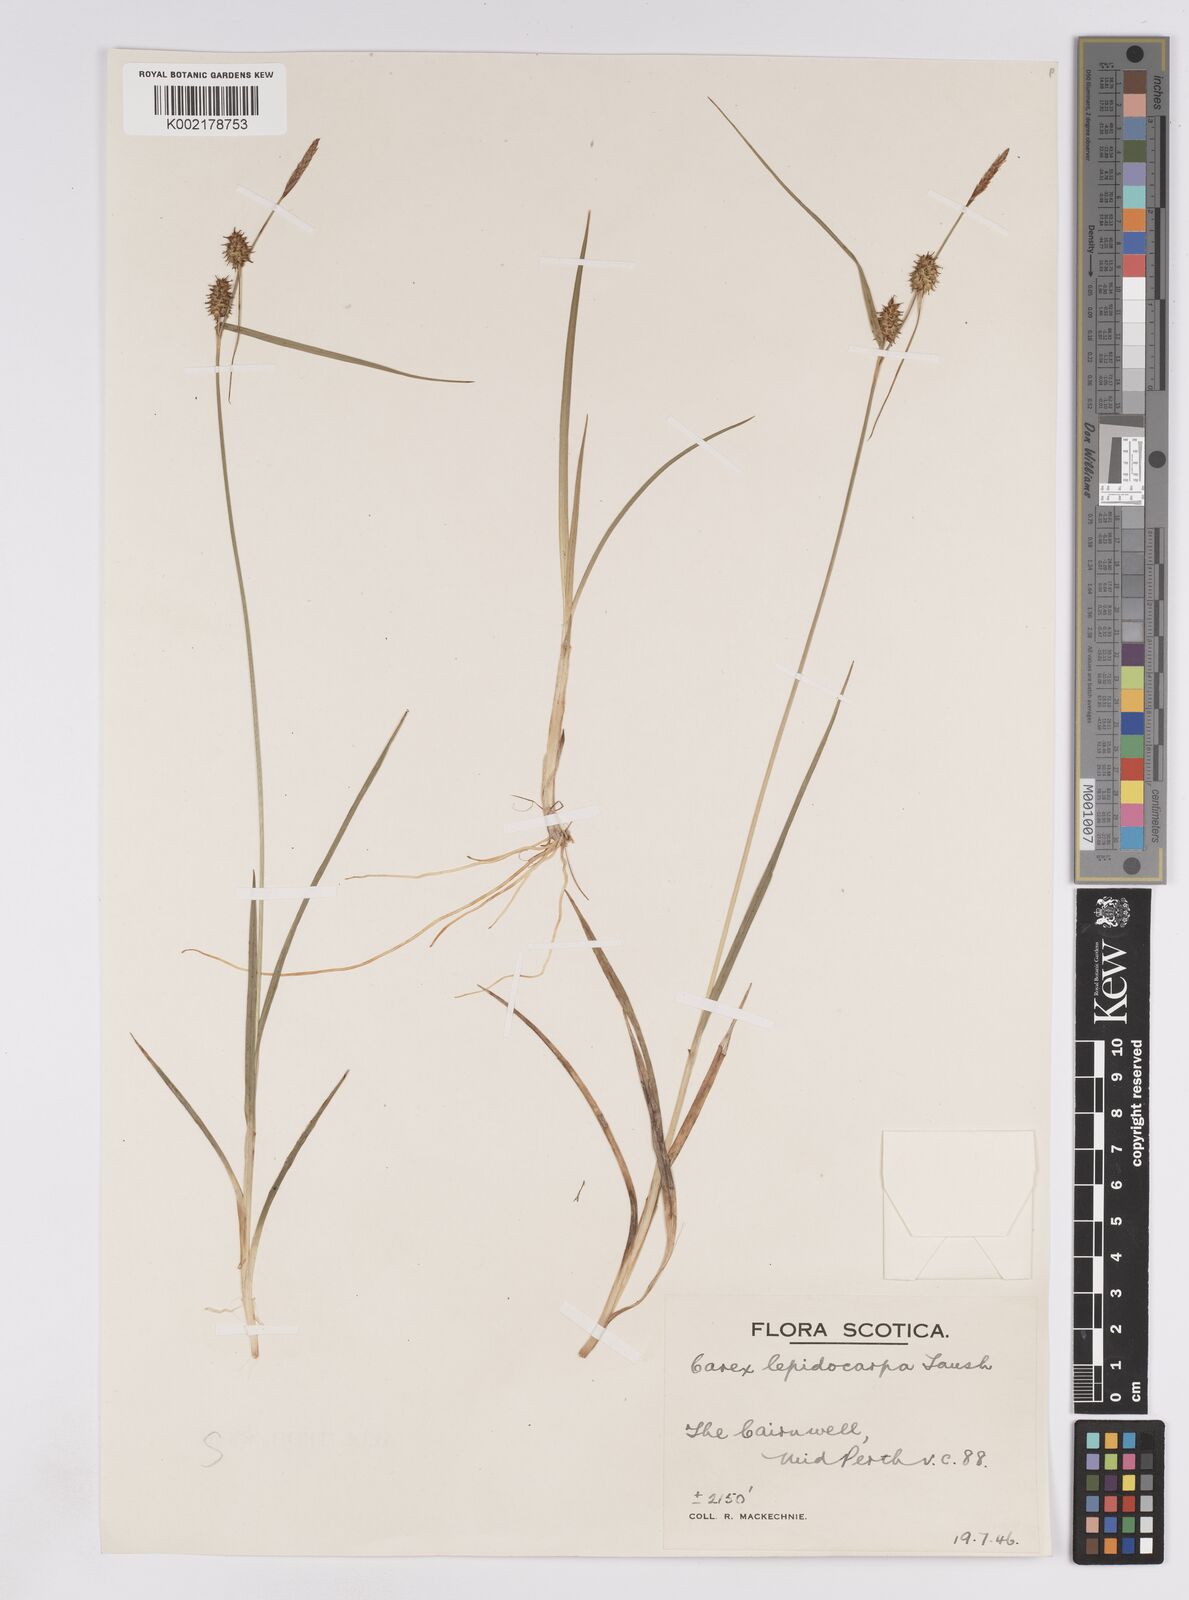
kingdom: Plantae
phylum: Tracheophyta
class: Liliopsida
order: Poales
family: Cyperaceae
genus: Carex
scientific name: Carex lepidocarpa
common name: Long-stalked yellow-sedge
